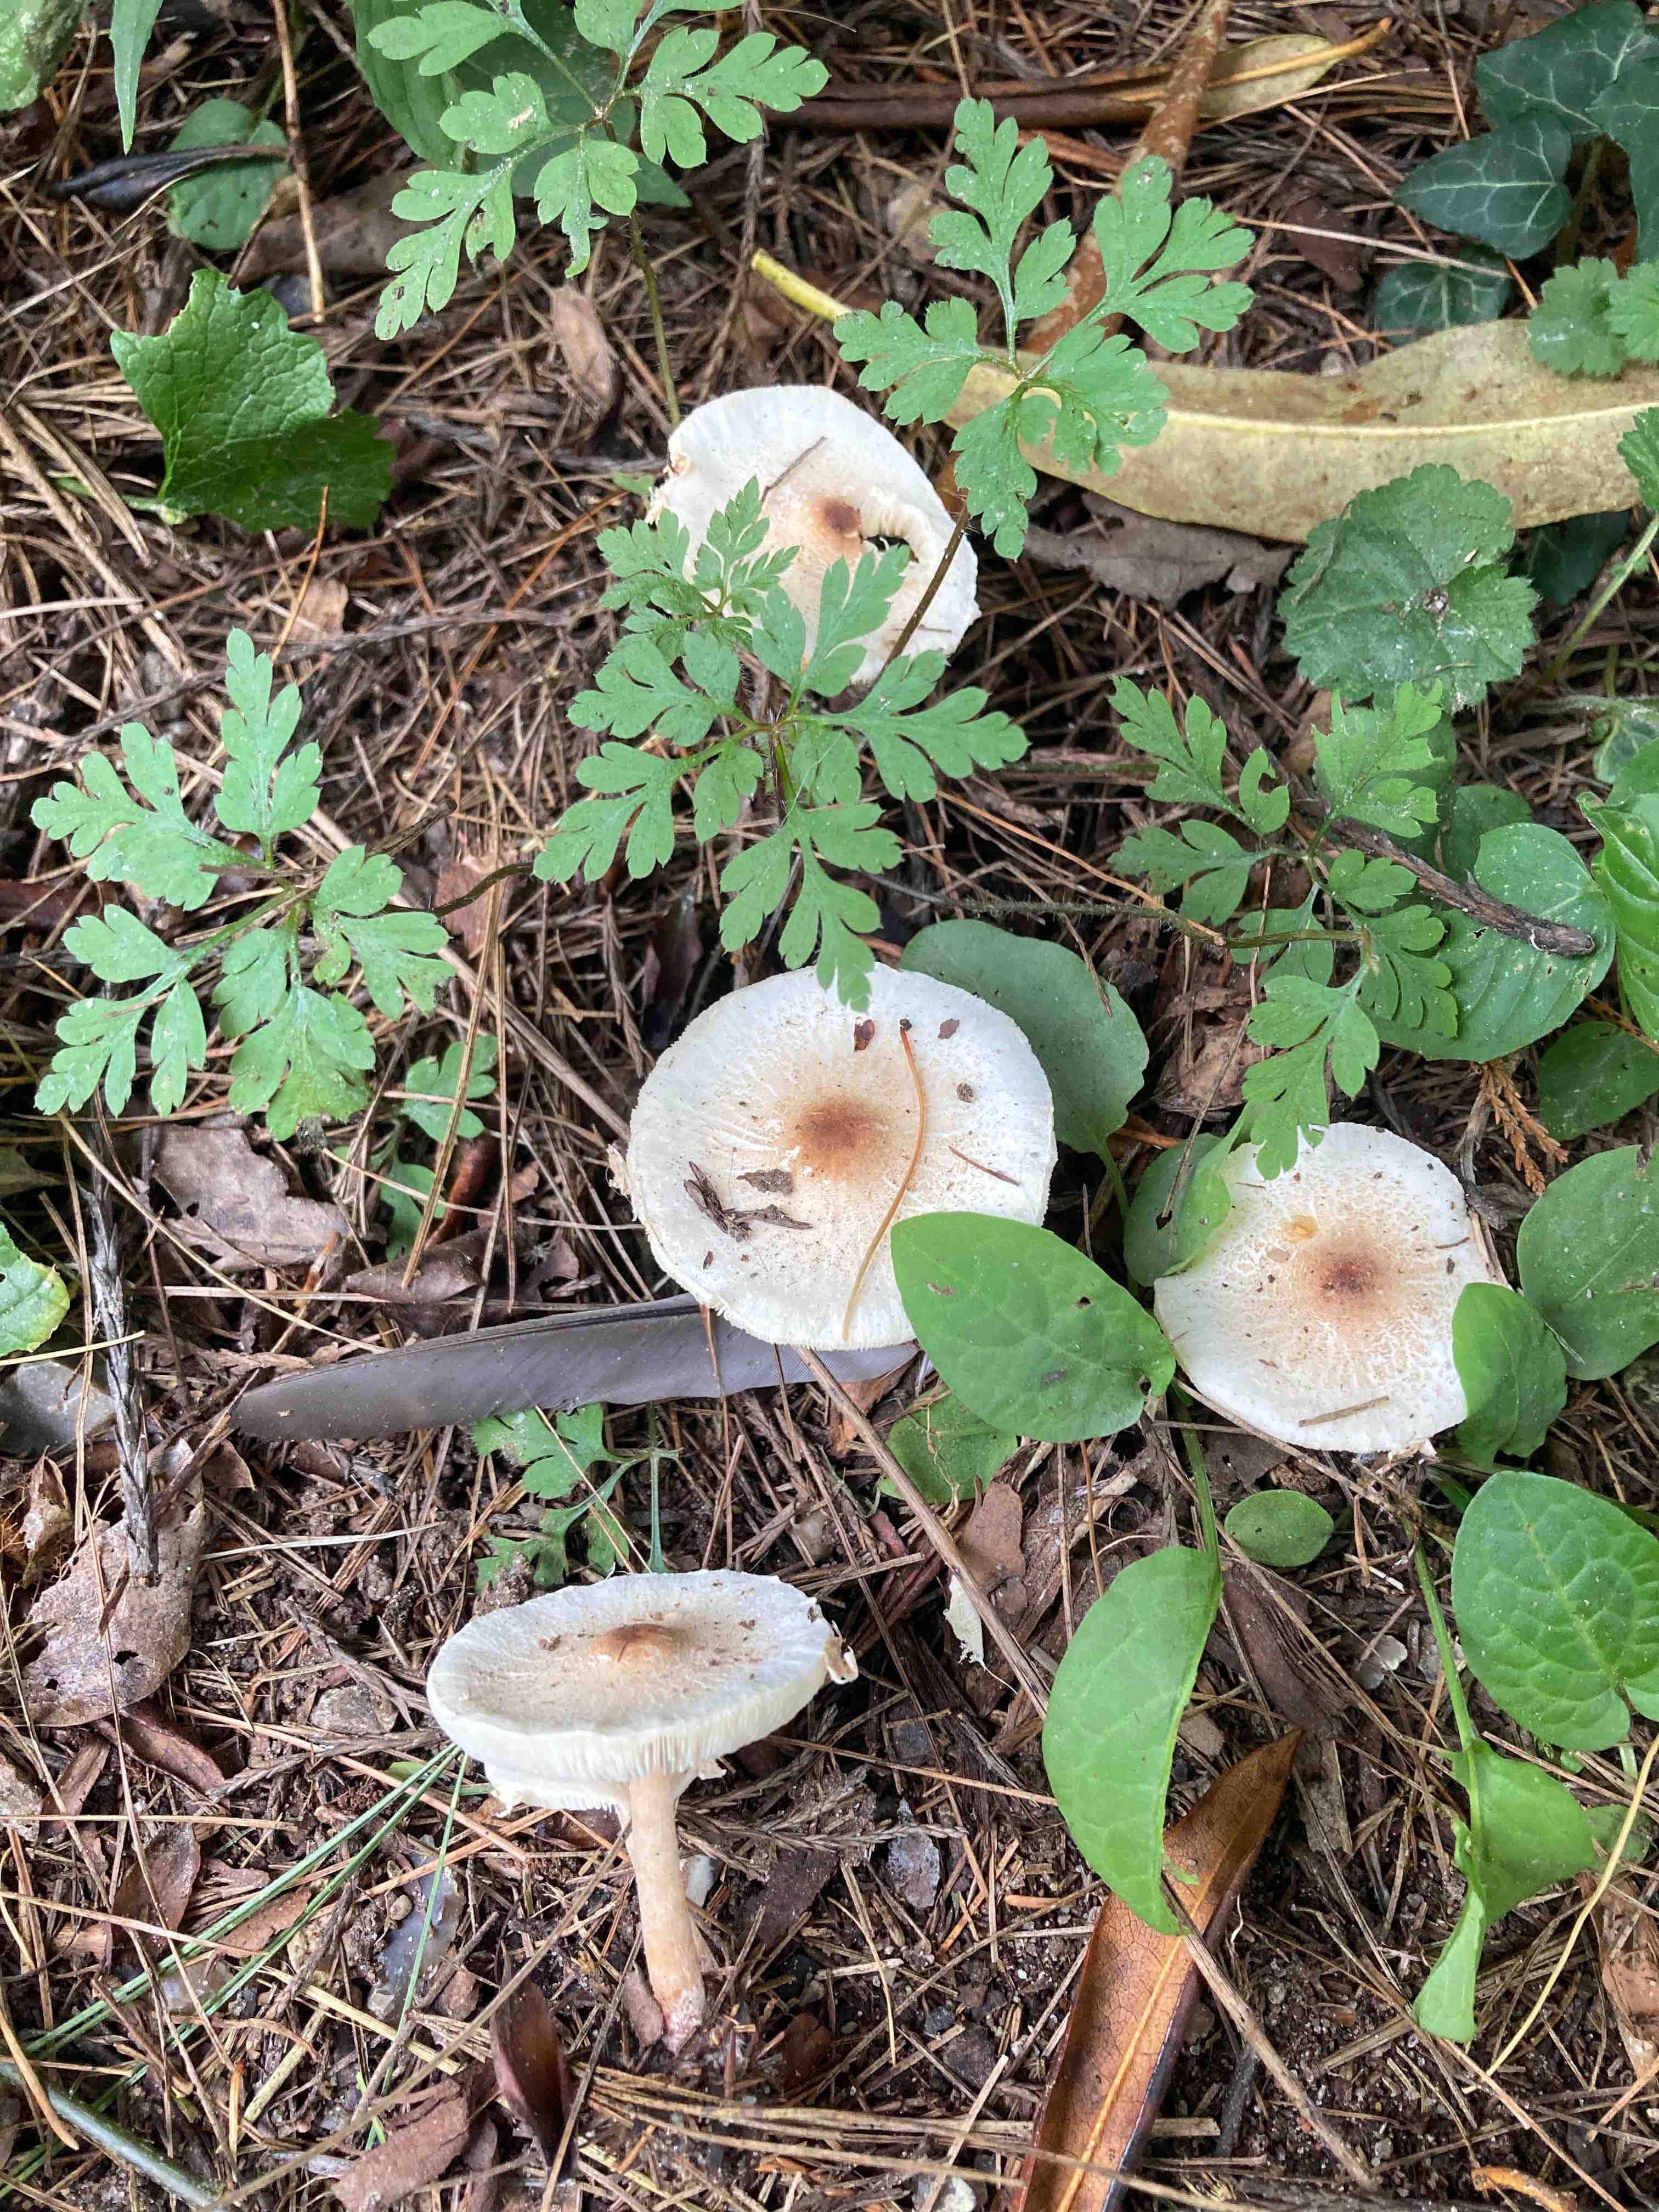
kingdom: Fungi
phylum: Basidiomycota
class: Agaricomycetes
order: Agaricales
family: Agaricaceae
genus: Lepiota
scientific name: Lepiota cristata
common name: stinkende parasolhat
